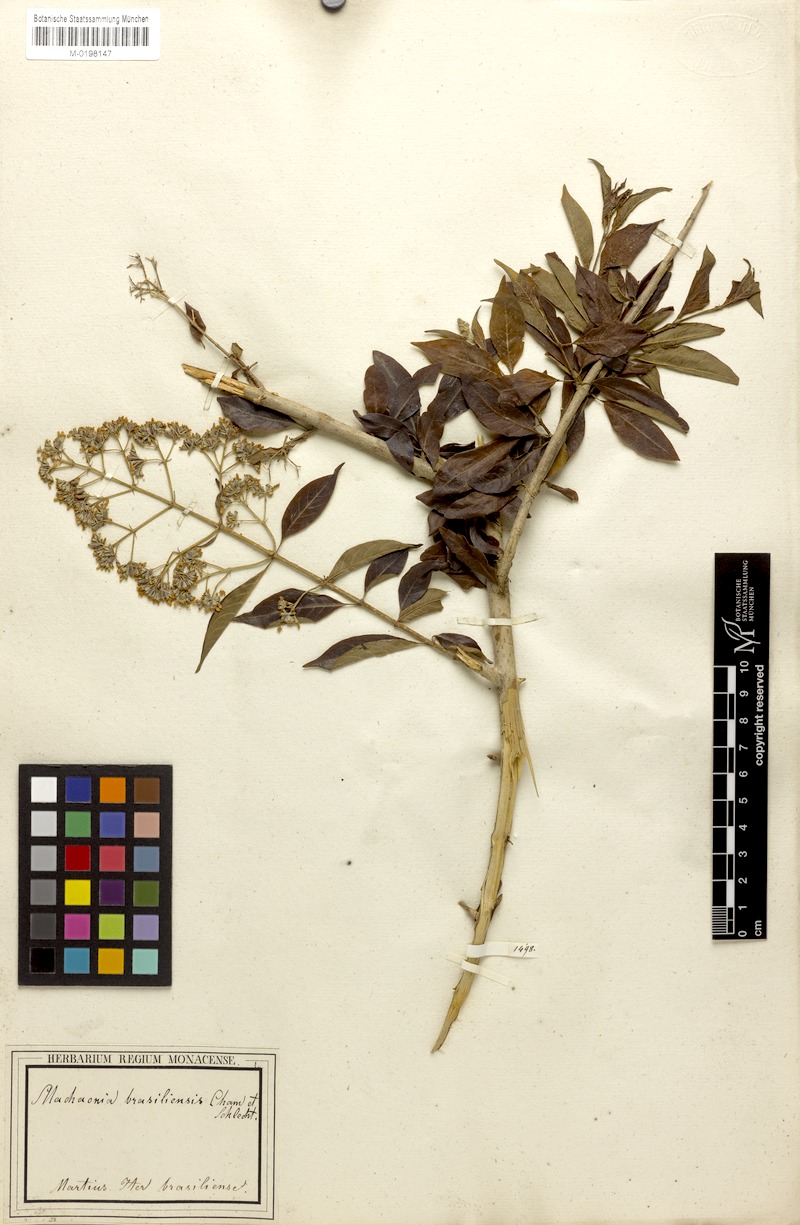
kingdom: Plantae
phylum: Tracheophyta
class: Magnoliopsida
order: Gentianales
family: Rubiaceae
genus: Machaonia
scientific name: Machaonia brasiliensis
